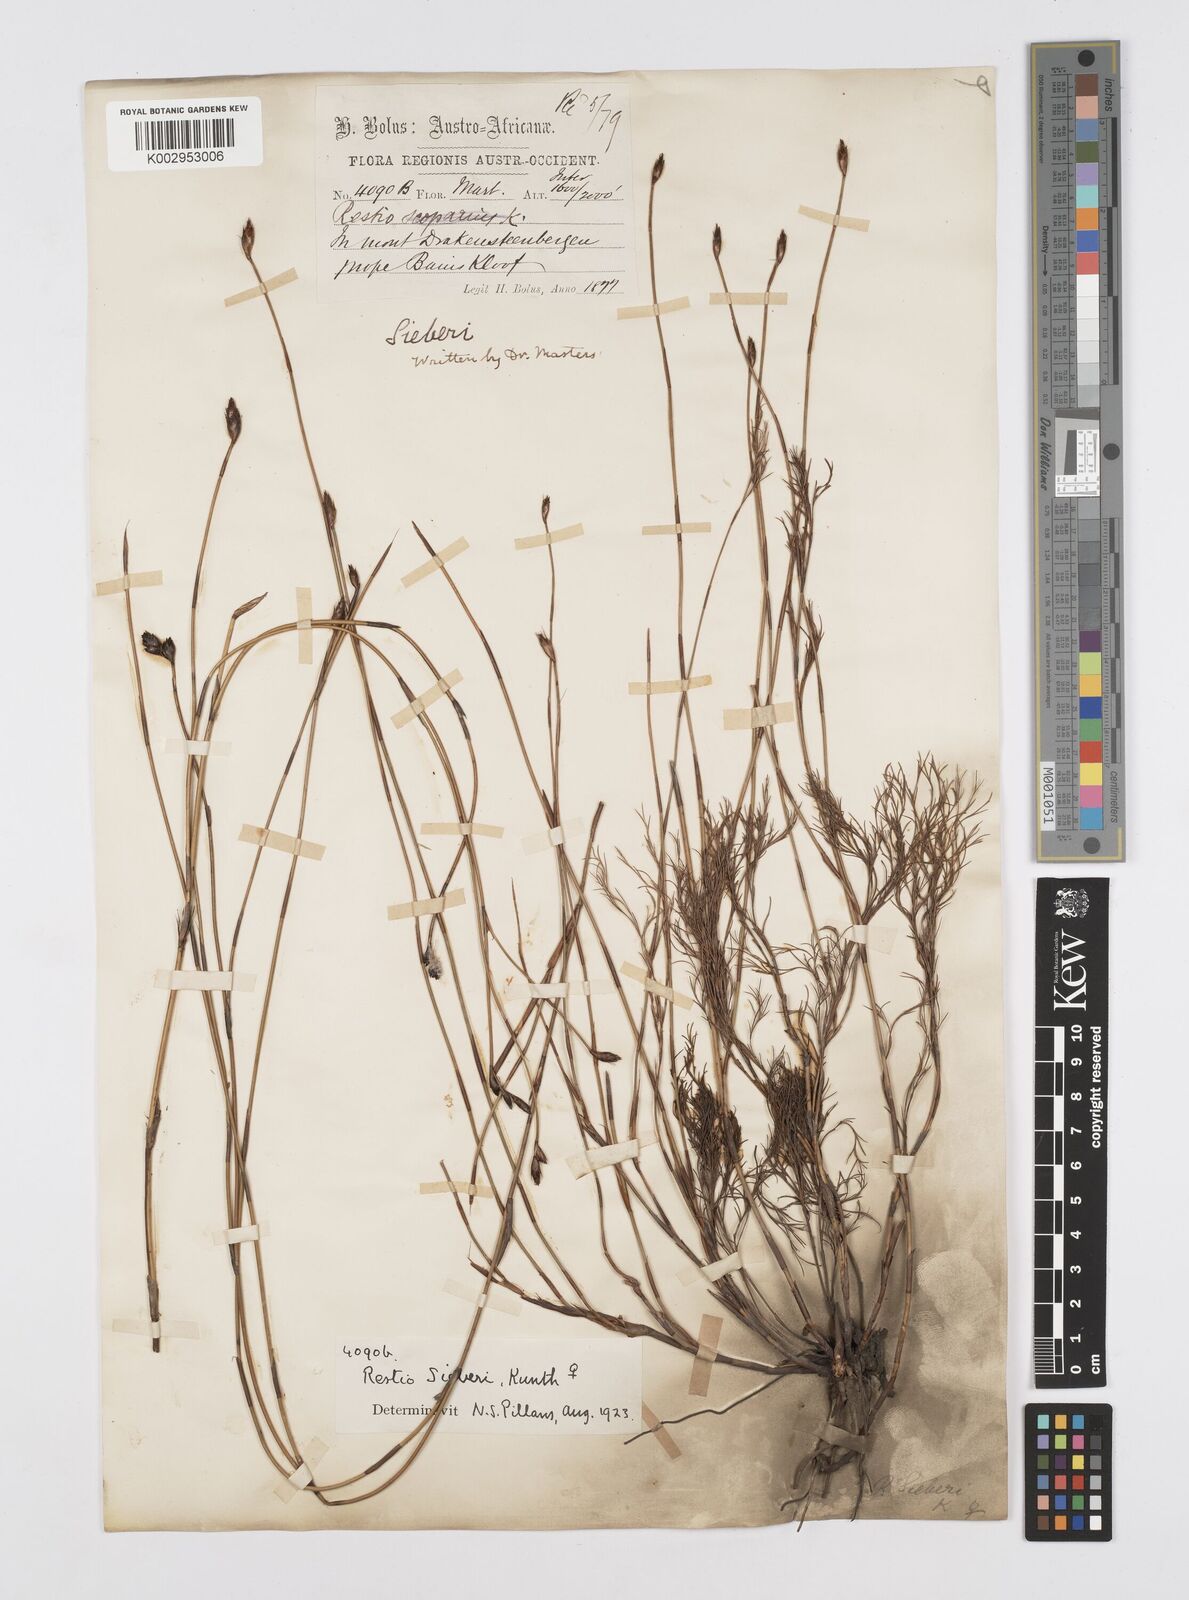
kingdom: Plantae
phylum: Tracheophyta
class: Liliopsida
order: Poales
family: Restionaceae
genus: Restio
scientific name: Restio sieberi
